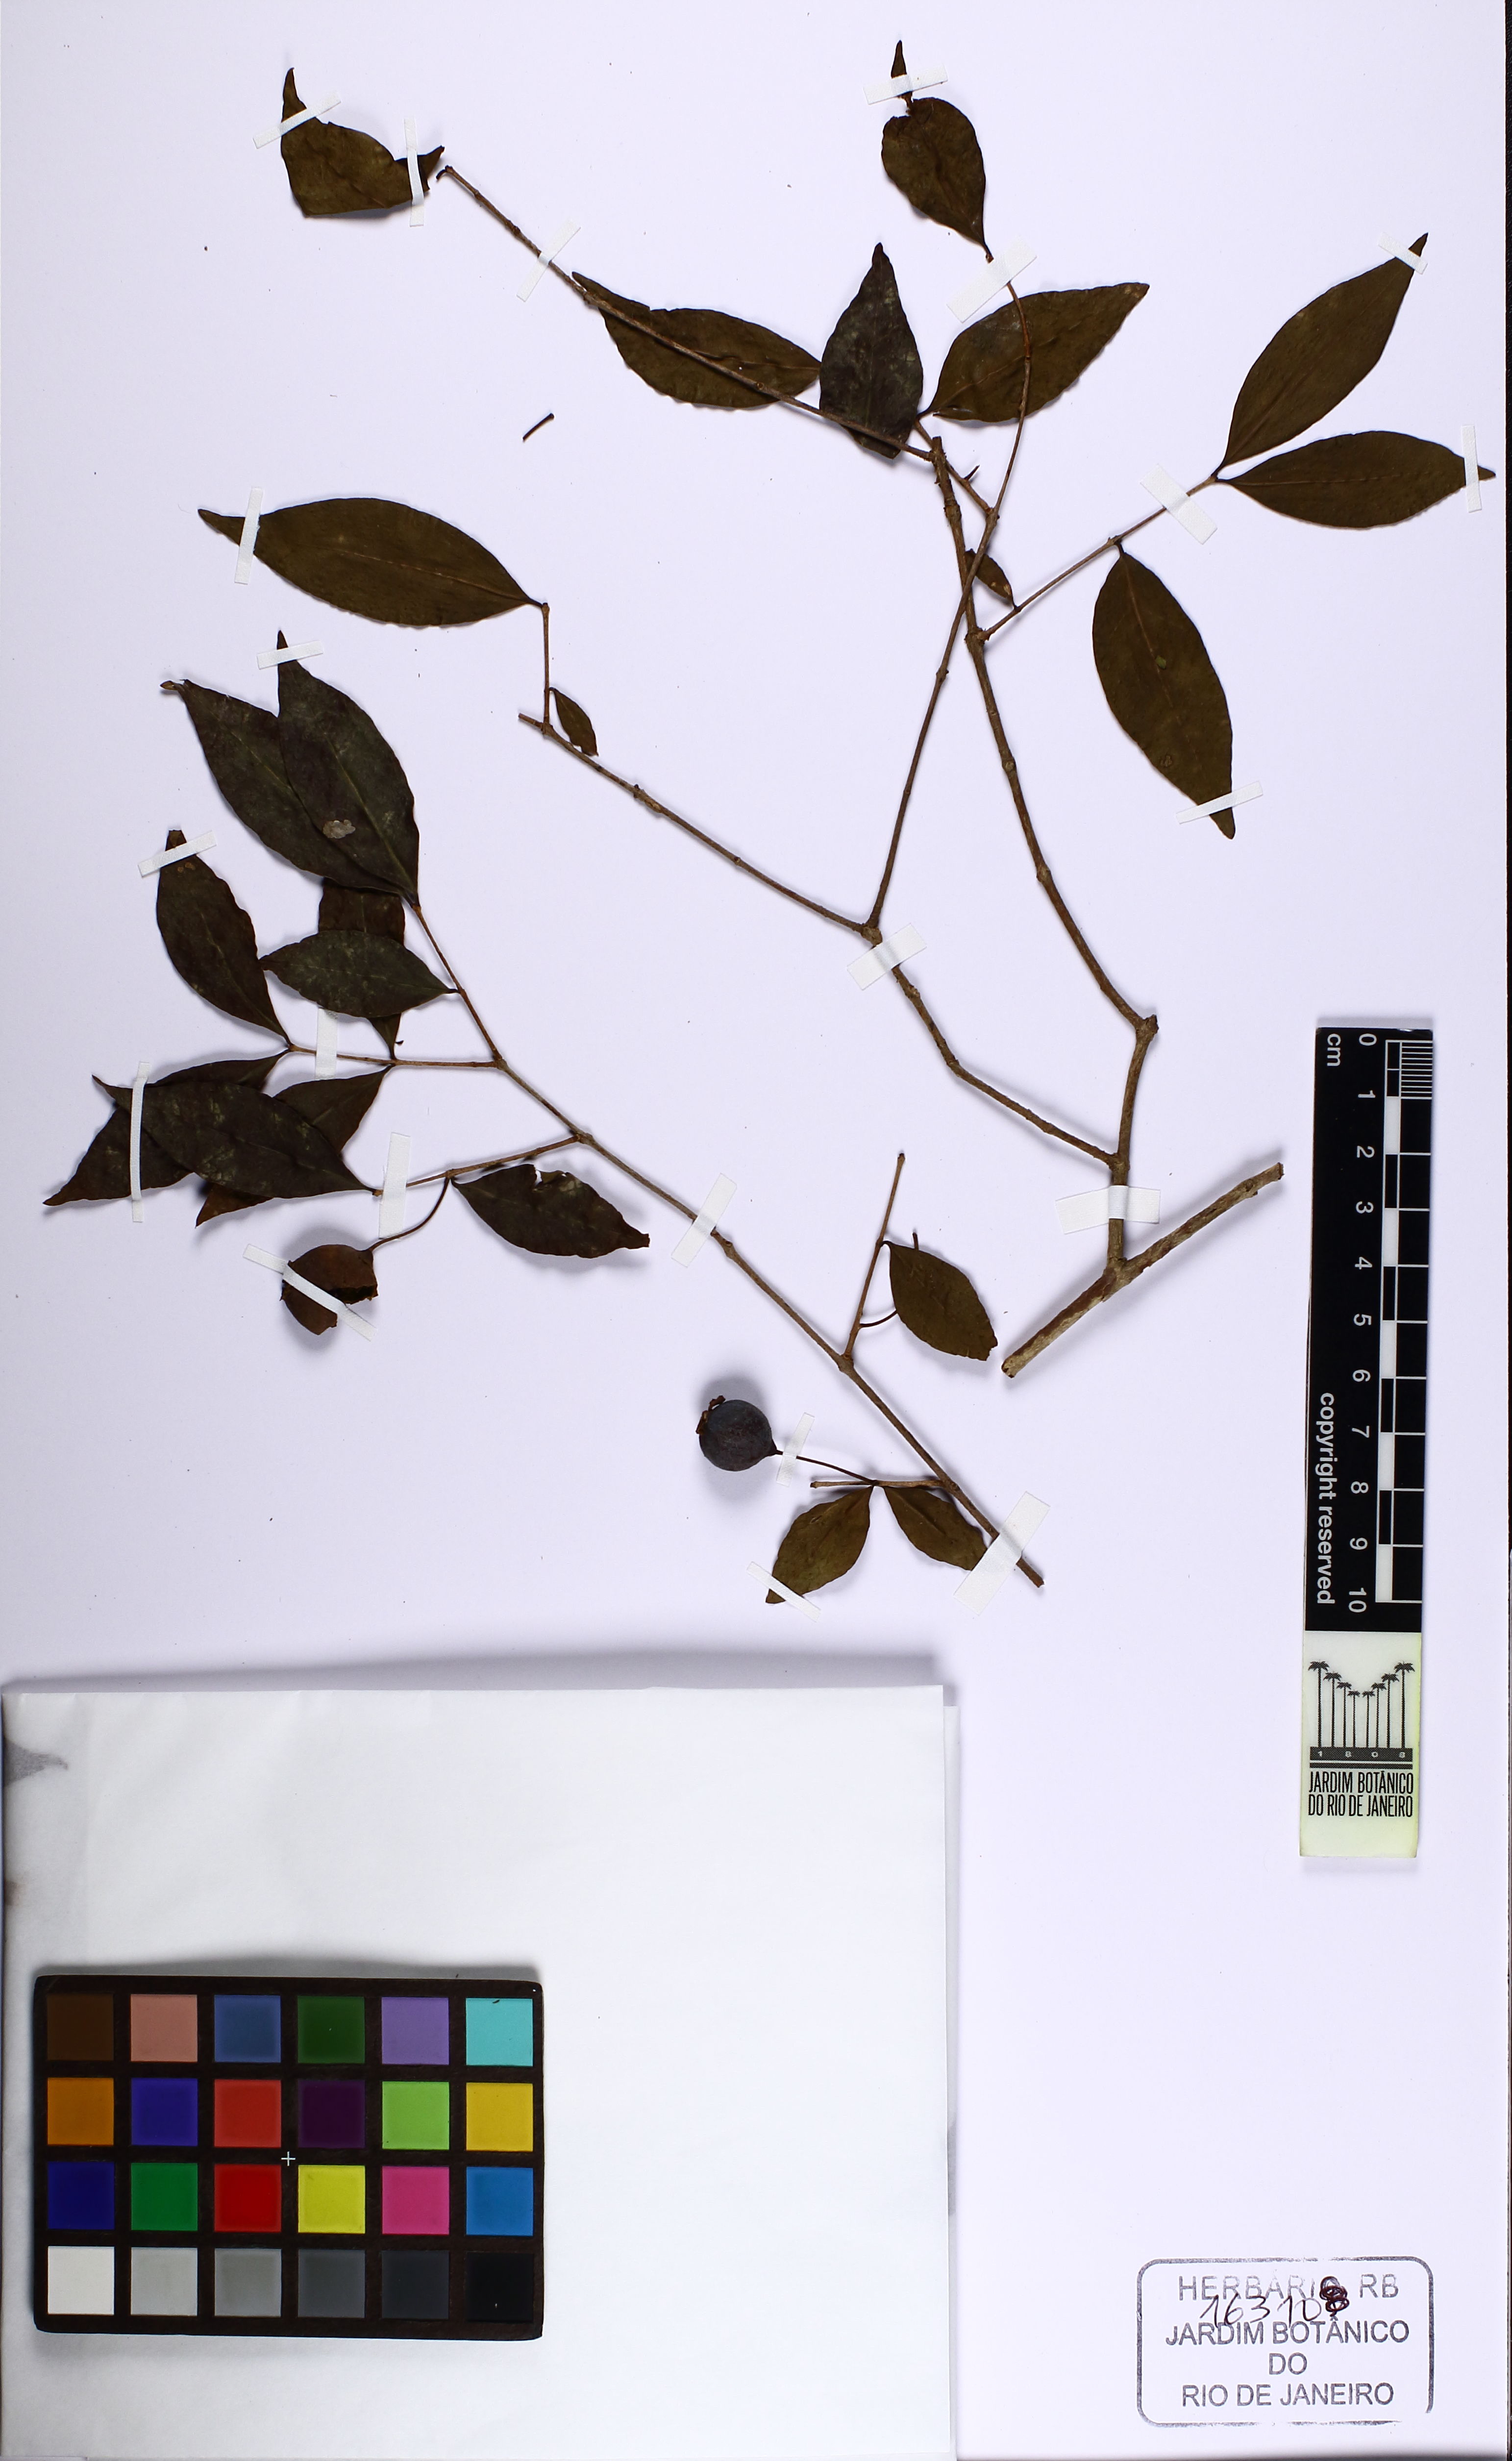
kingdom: Plantae
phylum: Tracheophyta
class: Magnoliopsida
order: Myrtales
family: Myrtaceae
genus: Psidium
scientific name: Psidium sartorianum
